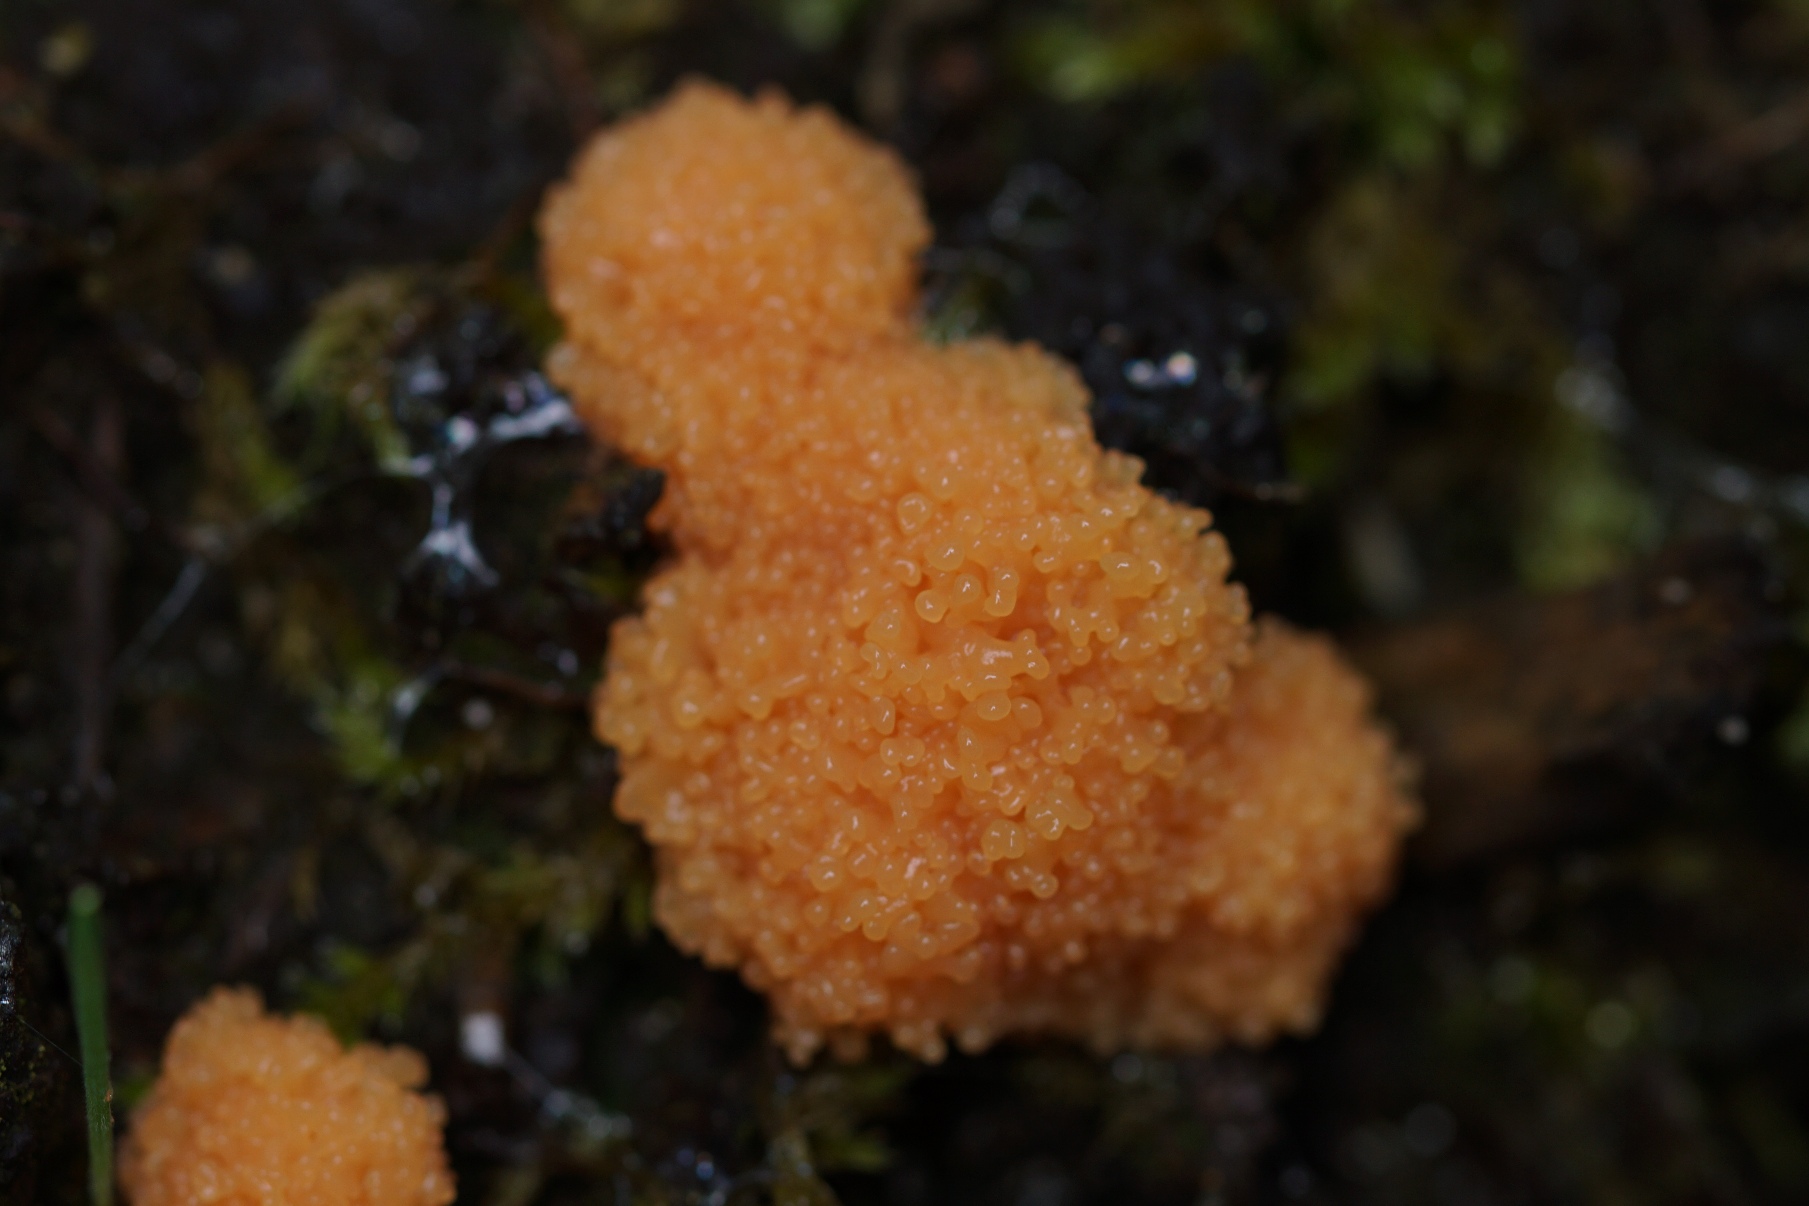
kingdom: Protozoa
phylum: Mycetozoa
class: Myxomycetes
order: Cribrariales
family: Tubiferaceae
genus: Tubifera
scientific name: Tubifera ferruginosa
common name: Kanel-støvrør
